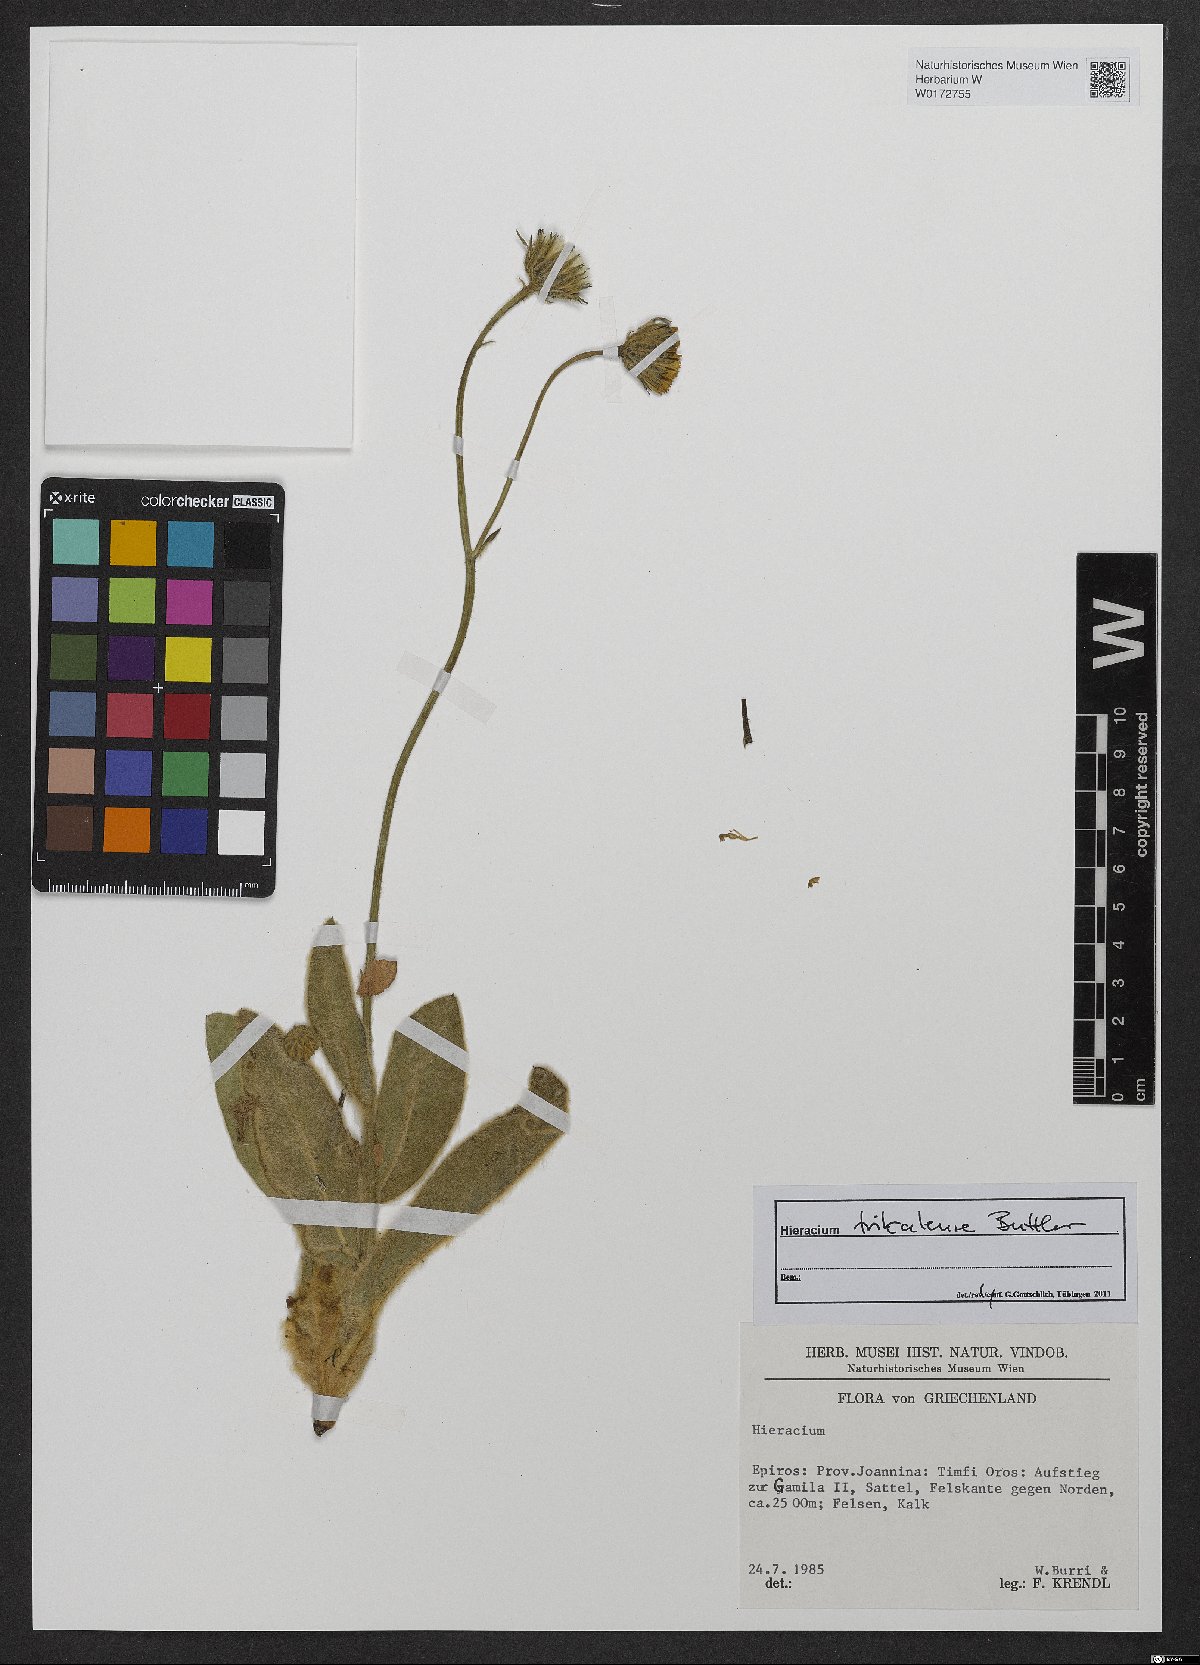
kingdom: Plantae
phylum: Tracheophyta
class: Magnoliopsida
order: Asterales
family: Asteraceae
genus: Hieracium
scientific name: Hieracium trikalense
